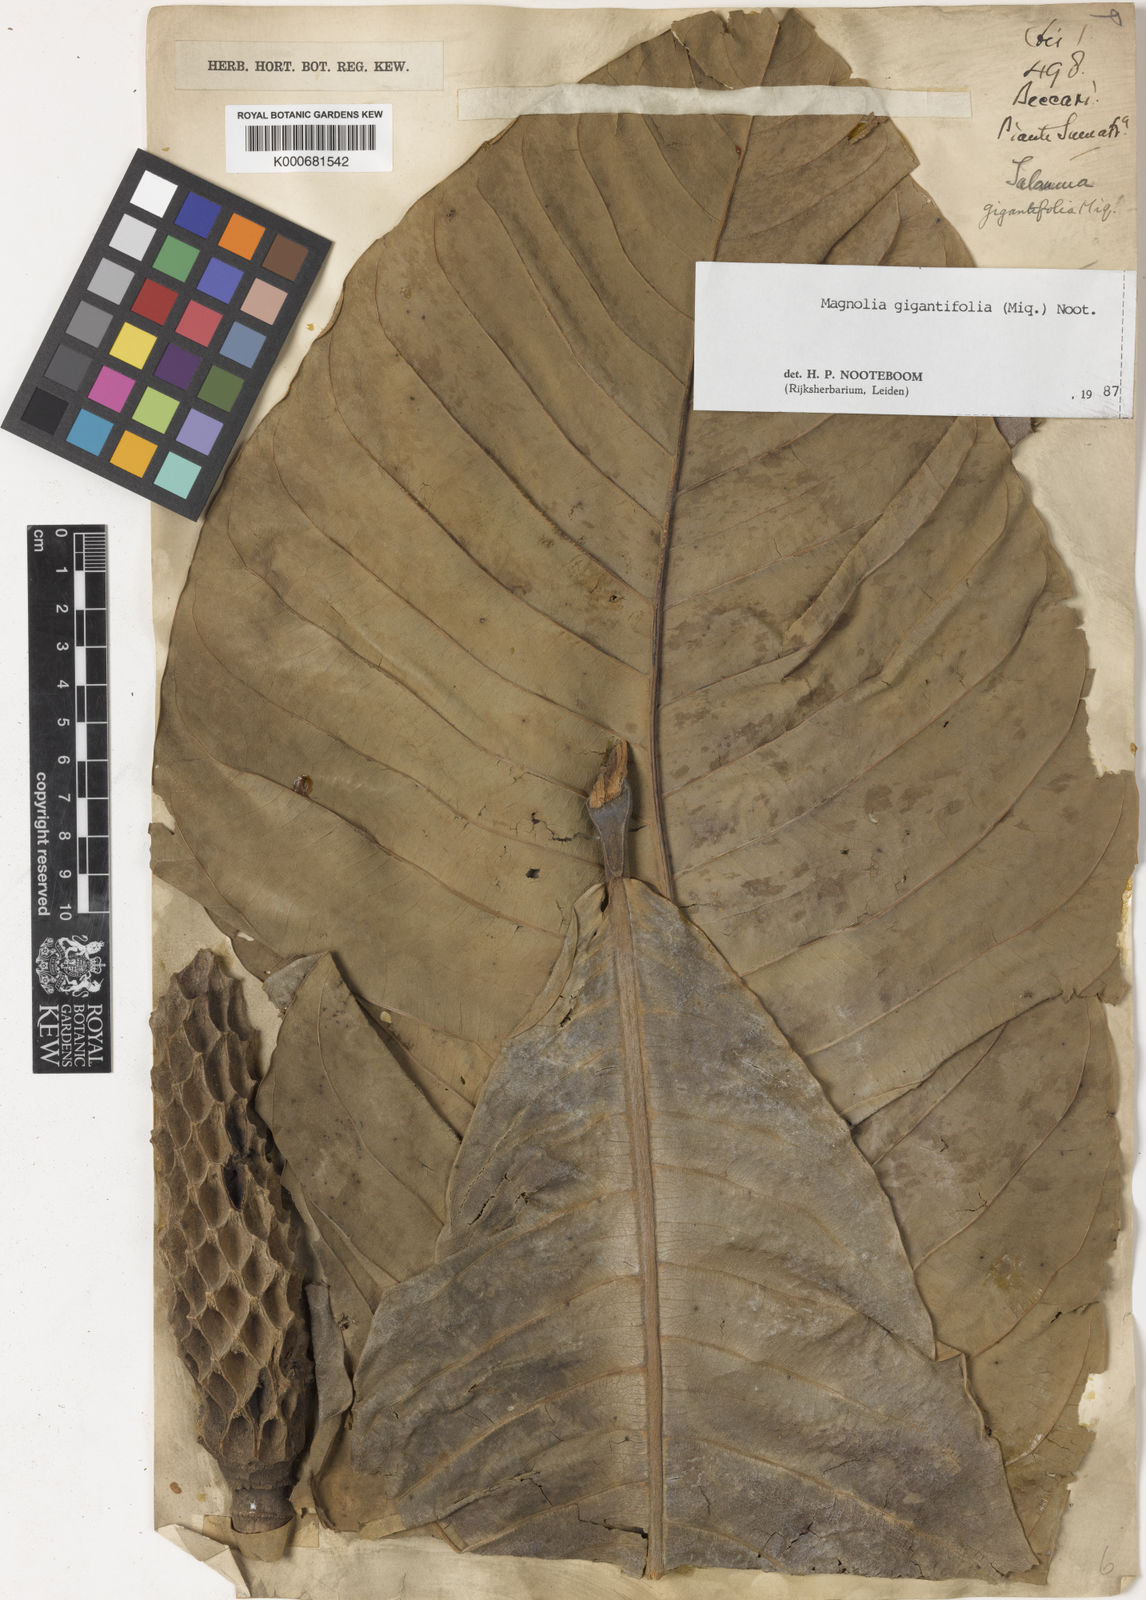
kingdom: Plantae
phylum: Tracheophyta
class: Magnoliopsida
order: Magnoliales
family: Magnoliaceae
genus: Magnolia
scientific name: Magnolia gigantifolia
